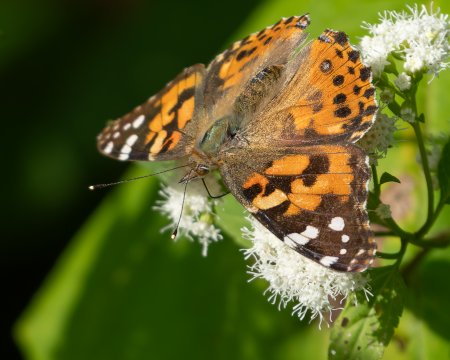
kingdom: Animalia
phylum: Arthropoda
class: Insecta
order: Lepidoptera
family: Nymphalidae
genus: Vanessa
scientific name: Vanessa cardui
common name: Painted Lady
